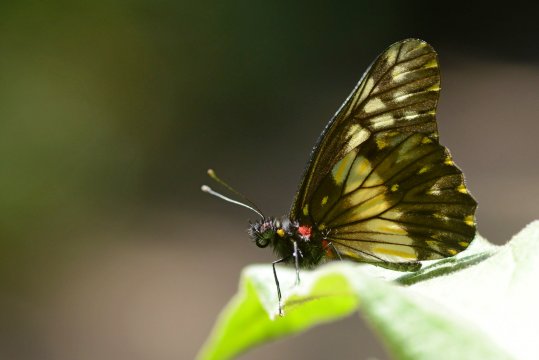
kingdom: Animalia
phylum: Arthropoda
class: Insecta
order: Lepidoptera
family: Pieridae
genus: Catasticta
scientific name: Catasticta flisa
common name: Narrow-banded Dartwhite
